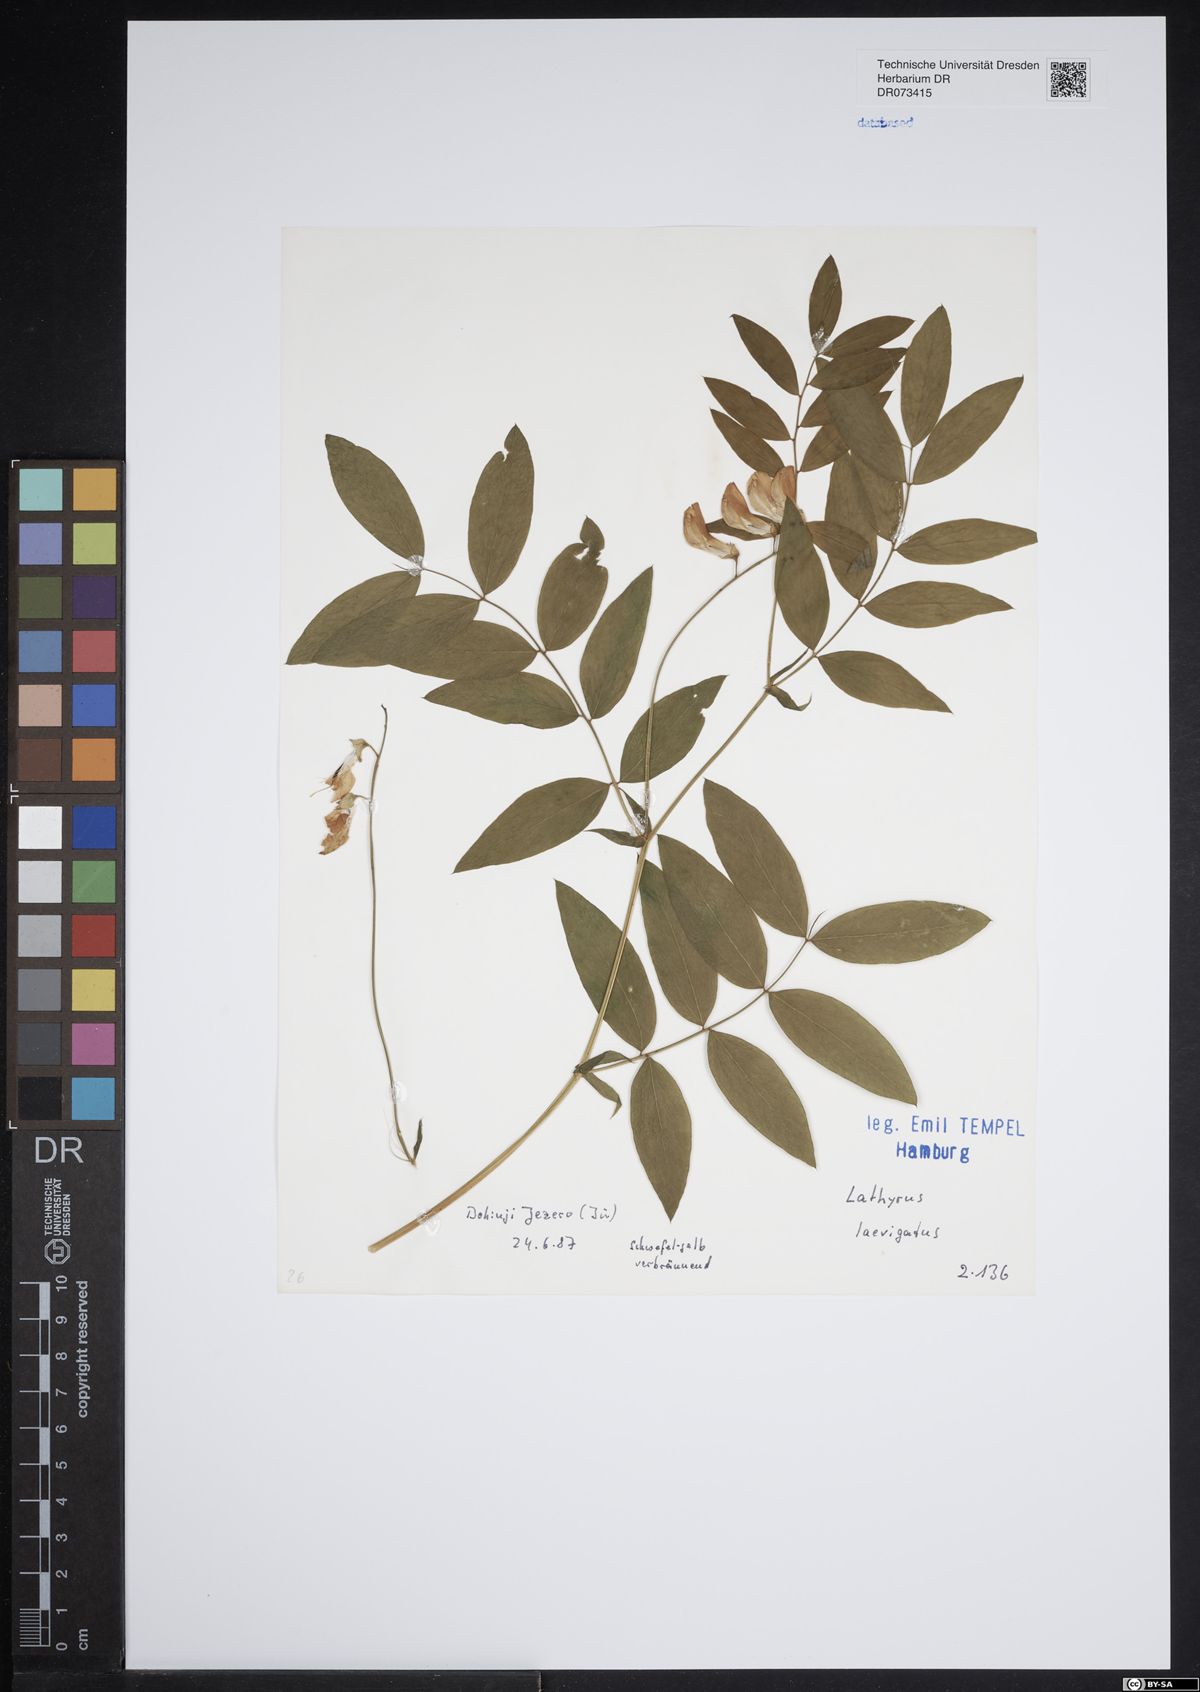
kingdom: Plantae
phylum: Tracheophyta
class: Magnoliopsida
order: Fabales
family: Fabaceae
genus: Lathyrus
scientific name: Lathyrus laevigatus
